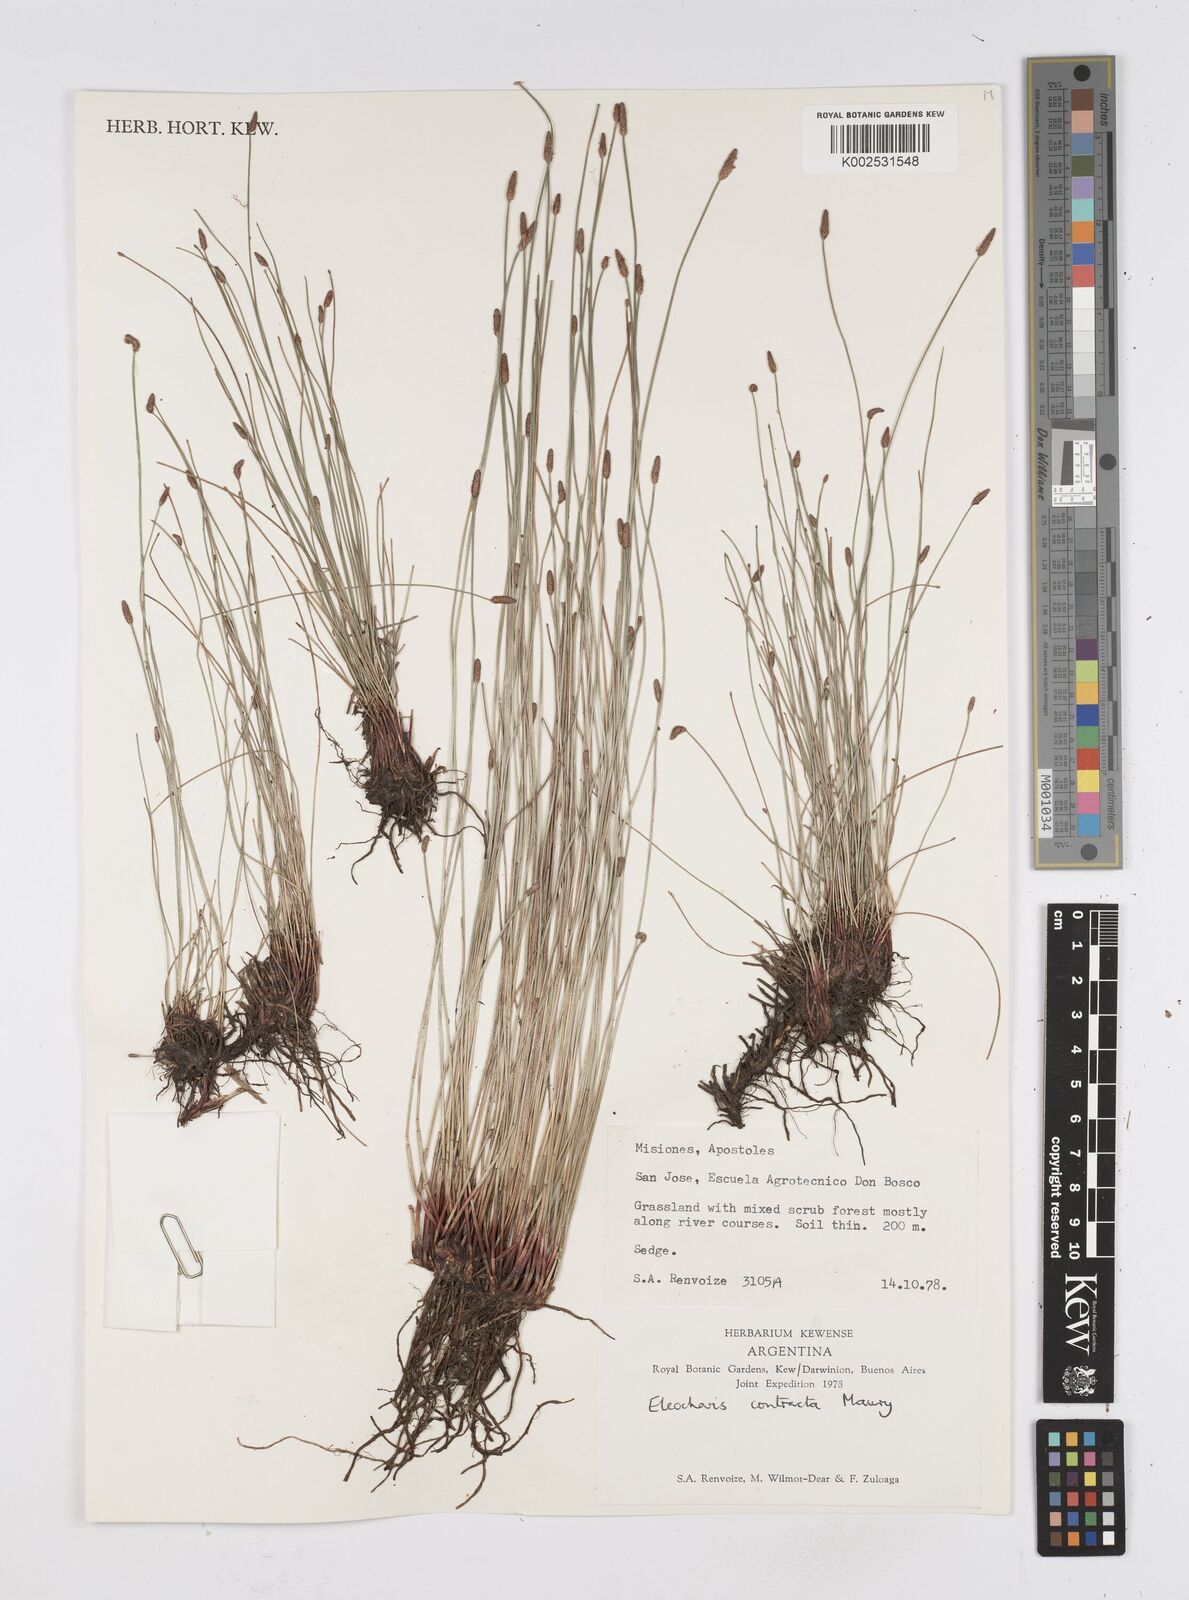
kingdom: Plantae
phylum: Tracheophyta
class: Liliopsida
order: Poales
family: Cyperaceae
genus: Eleocharis
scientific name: Eleocharis montana
